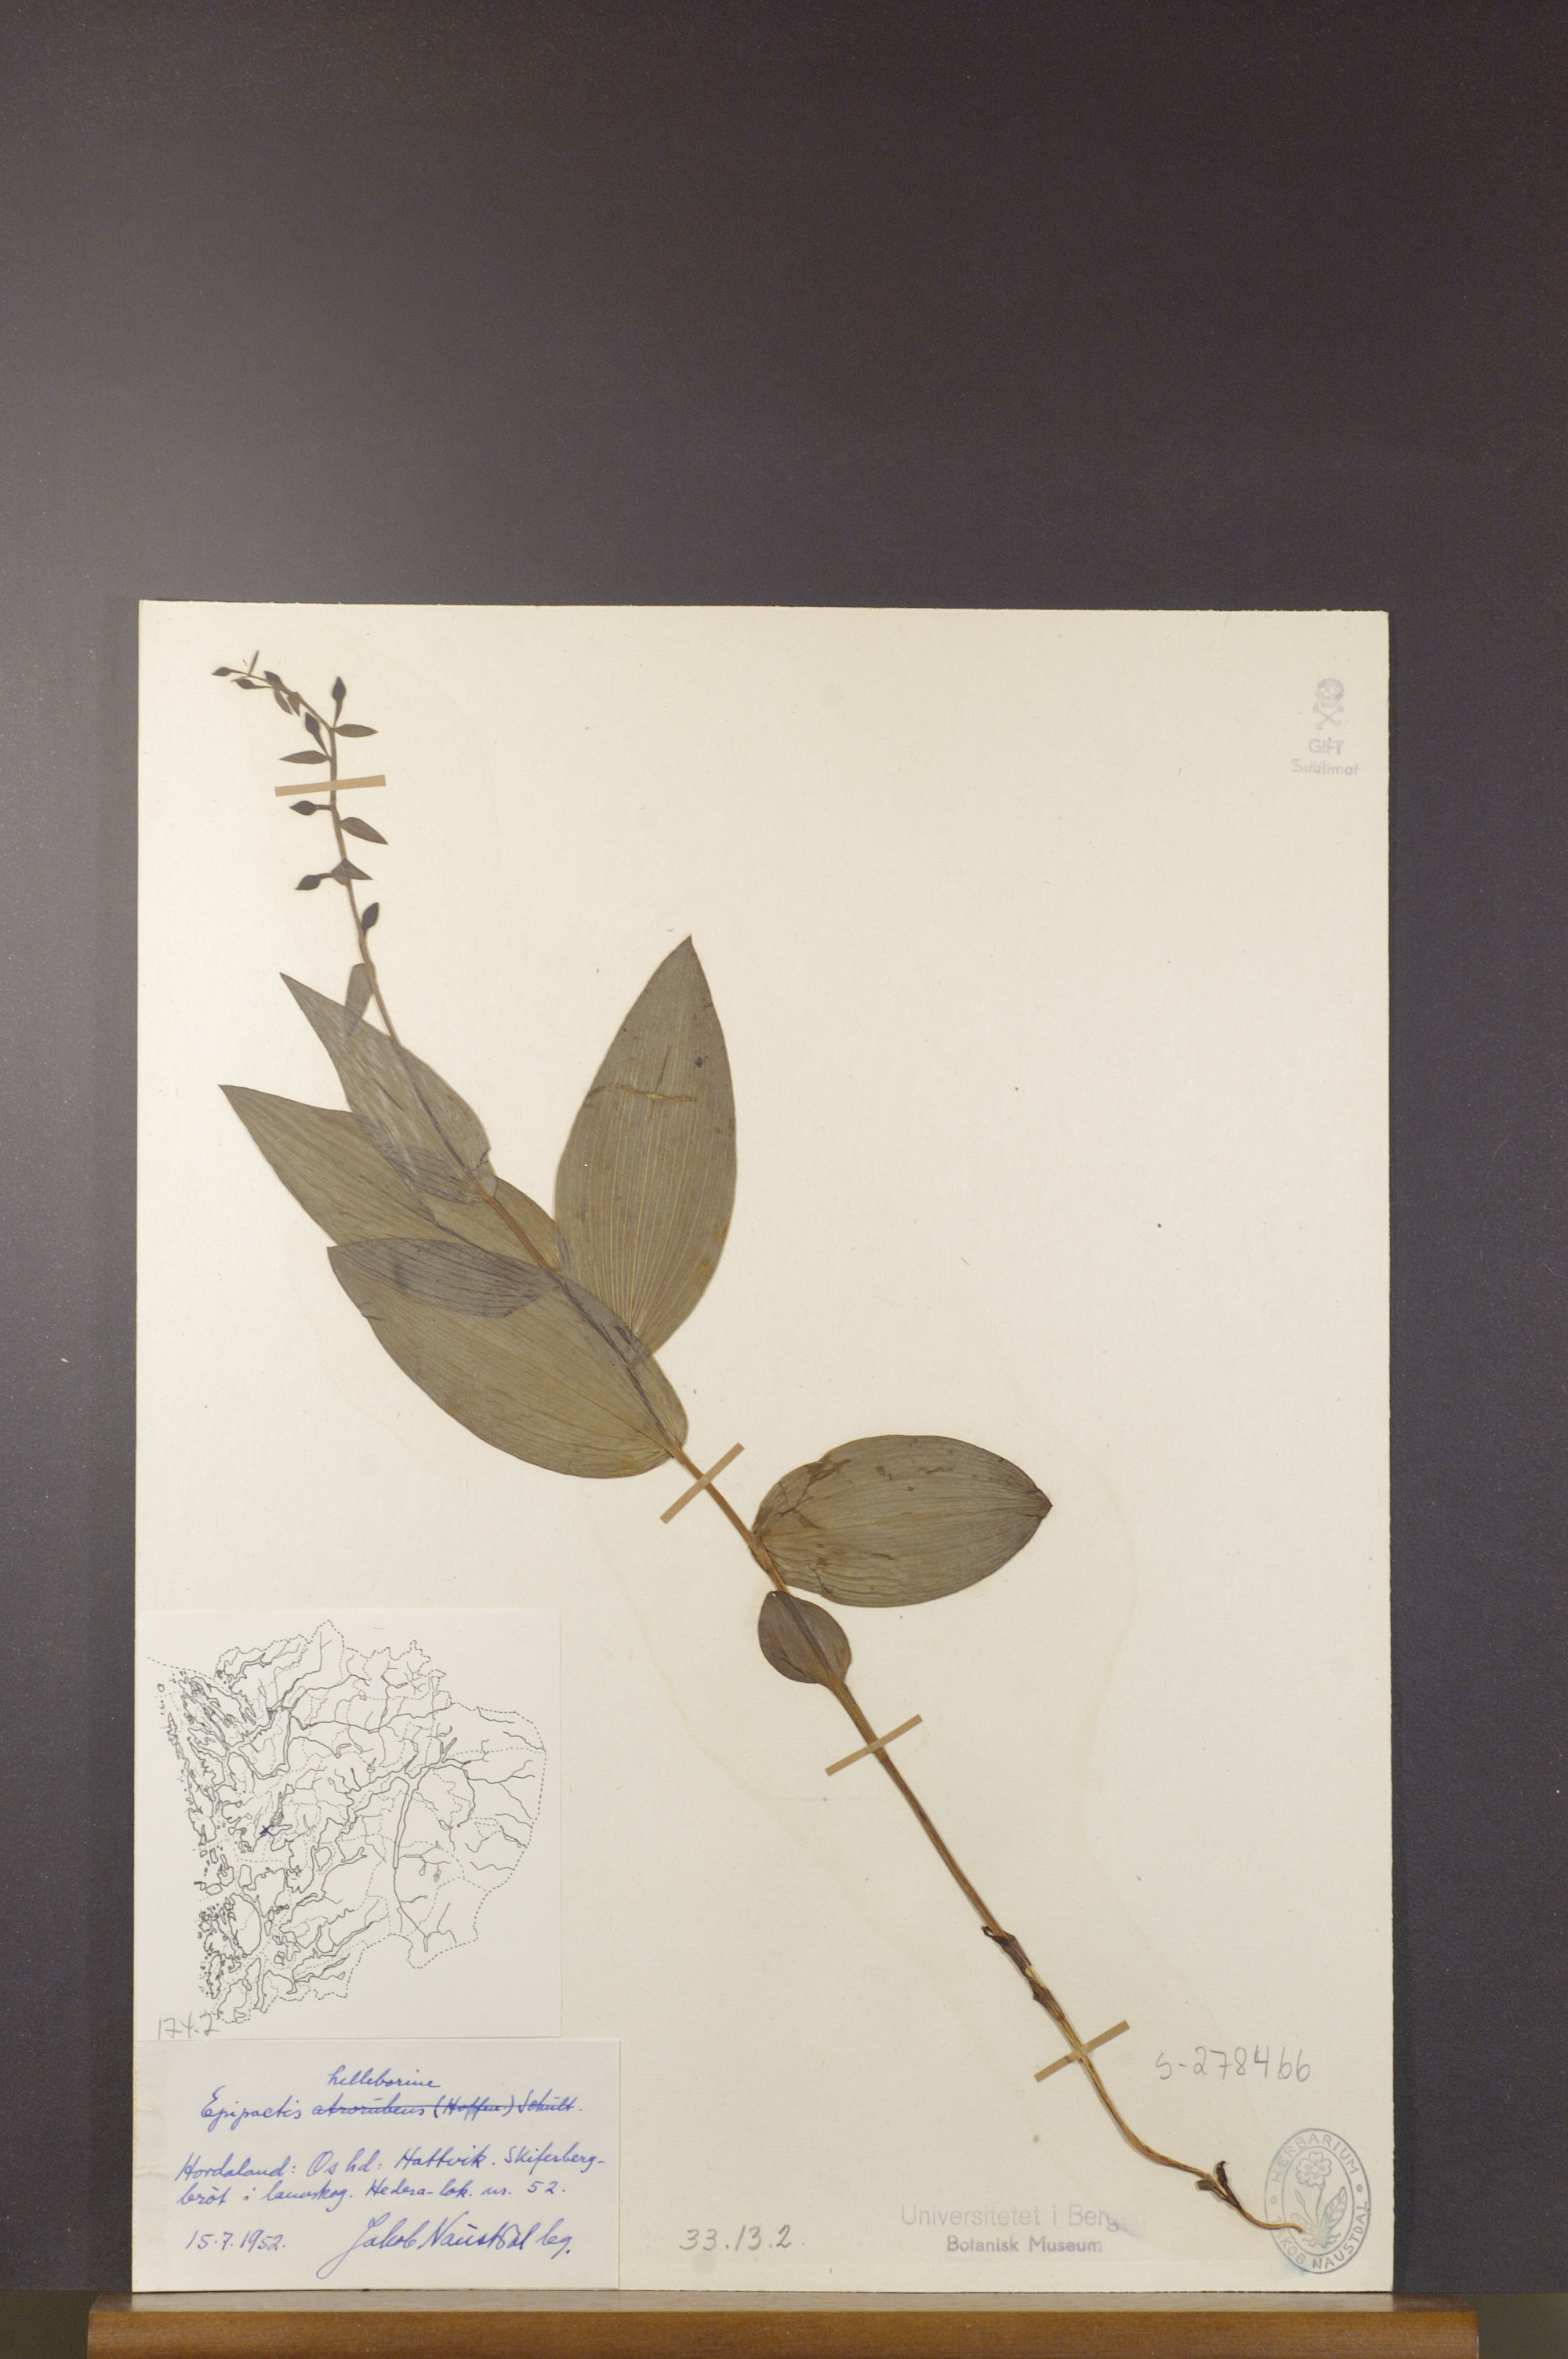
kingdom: Plantae
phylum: Tracheophyta
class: Liliopsida
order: Asparagales
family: Orchidaceae
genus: Epipactis
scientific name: Epipactis helleborine
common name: Broad-leaved helleborine
